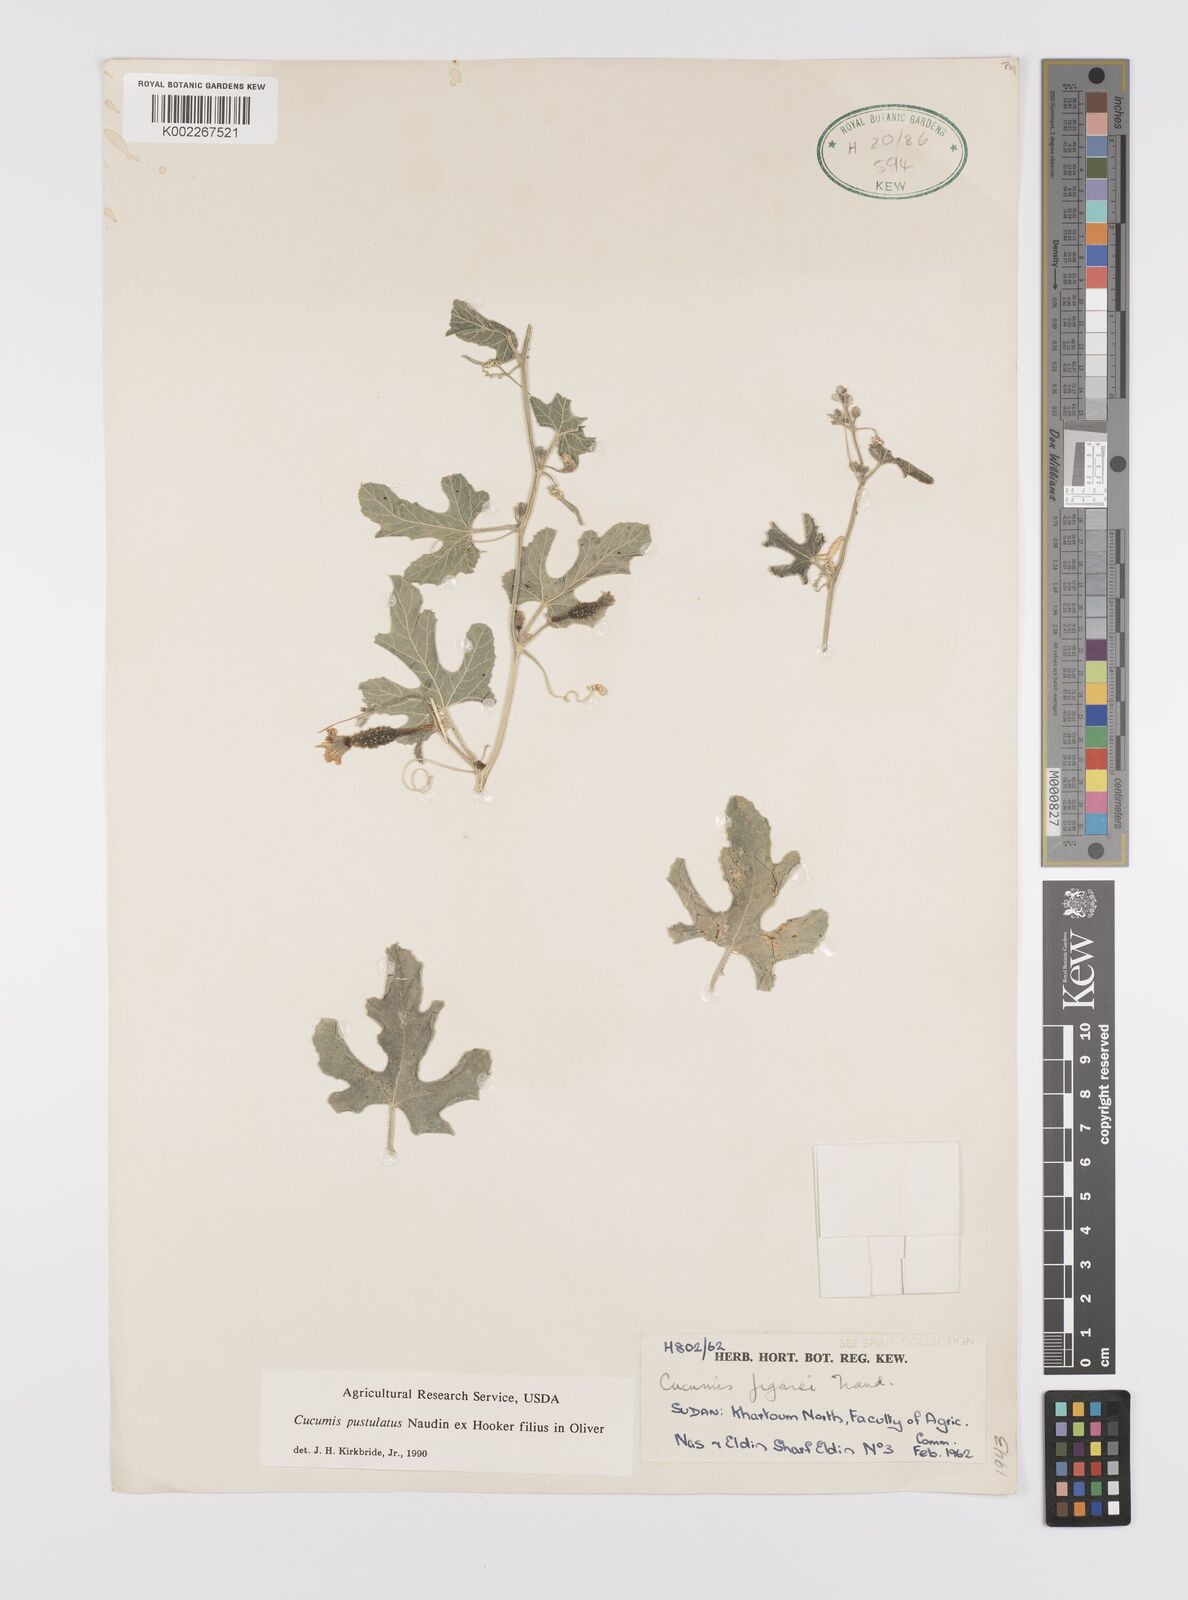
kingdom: Plantae
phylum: Tracheophyta
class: Magnoliopsida
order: Cucurbitales
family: Cucurbitaceae
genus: Cucumis
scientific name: Cucumis pustulatus
